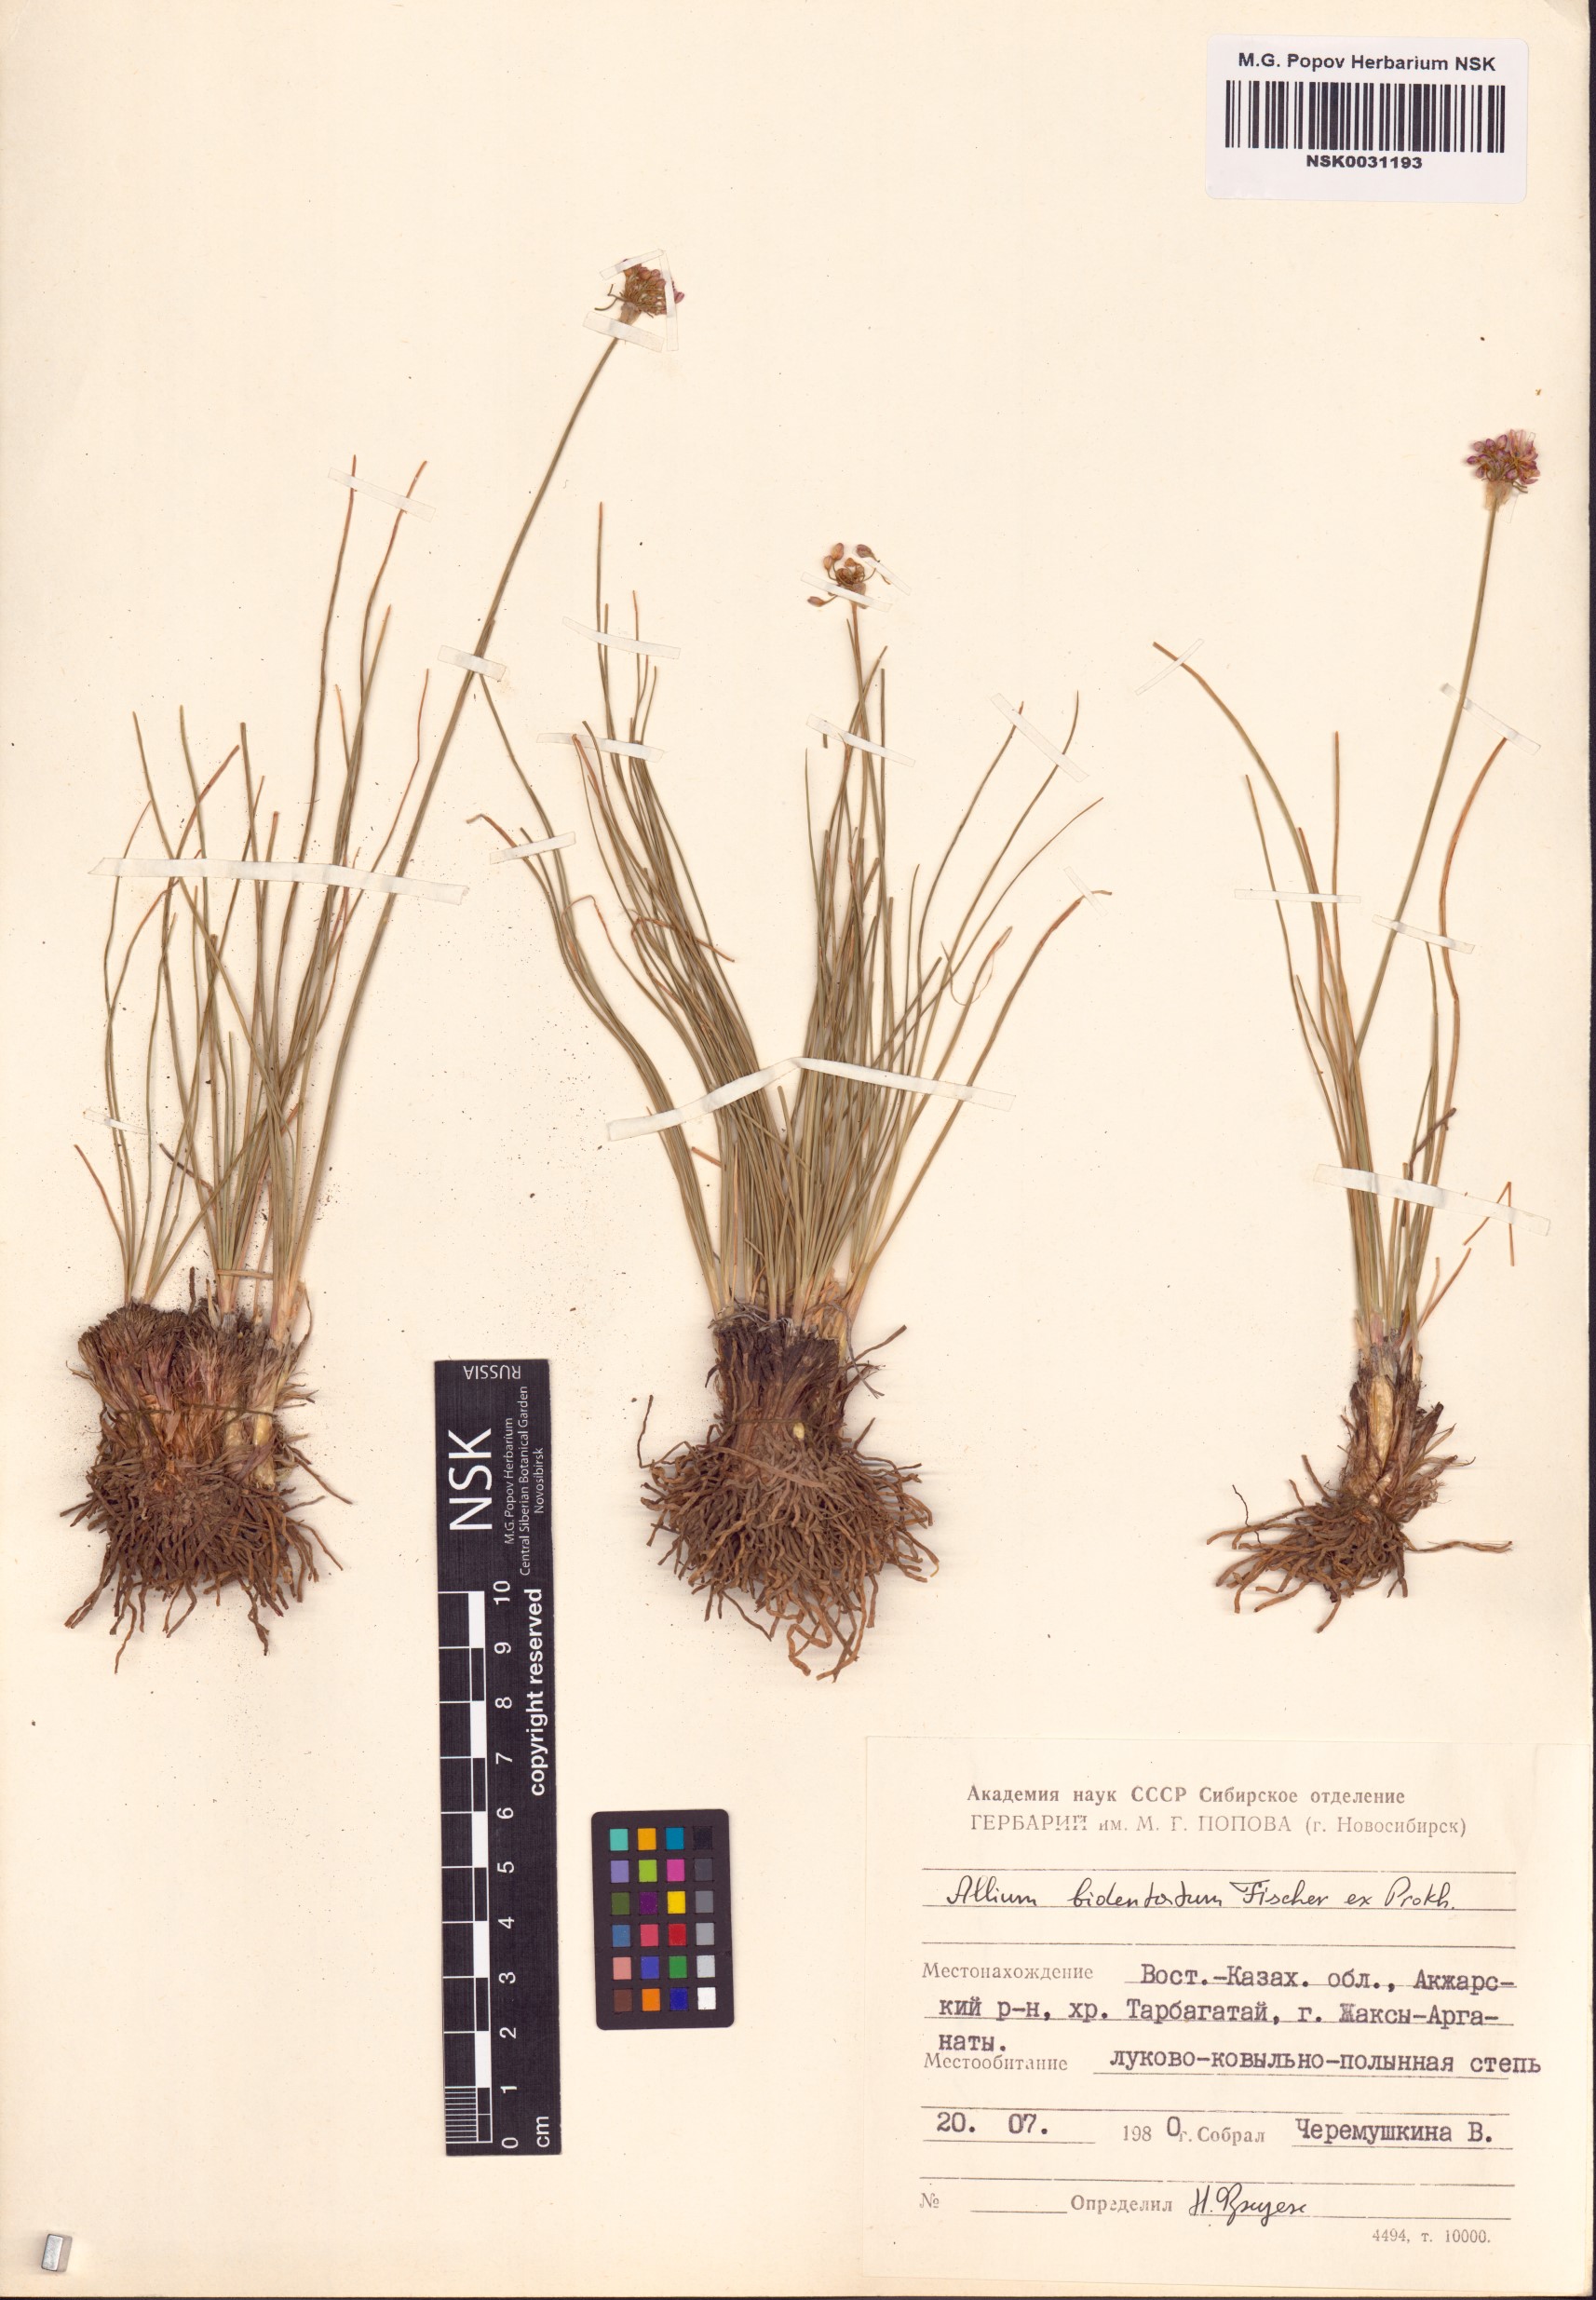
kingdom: Plantae
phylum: Tracheophyta
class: Liliopsida
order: Asparagales
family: Amaryllidaceae
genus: Allium
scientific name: Allium bidentatum
